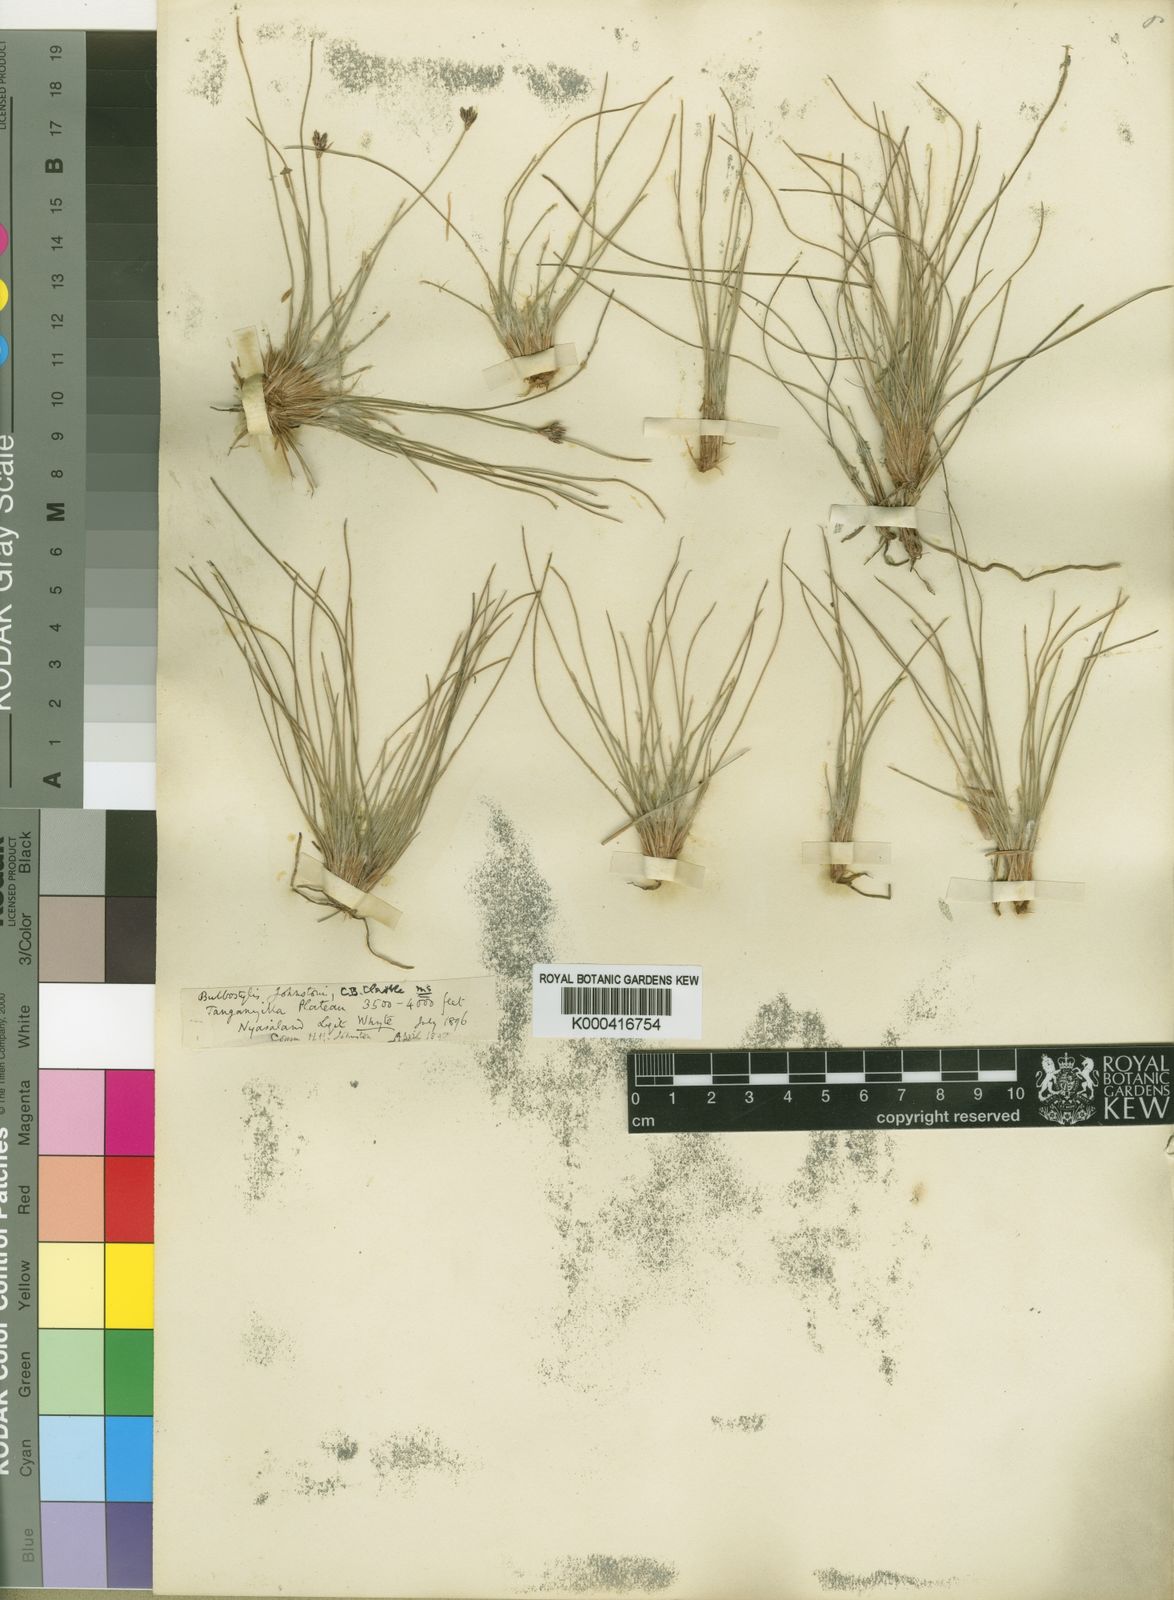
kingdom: Plantae
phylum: Tracheophyta
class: Liliopsida
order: Poales
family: Cyperaceae
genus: Bulbostylis
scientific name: Bulbostylis johnstonii
